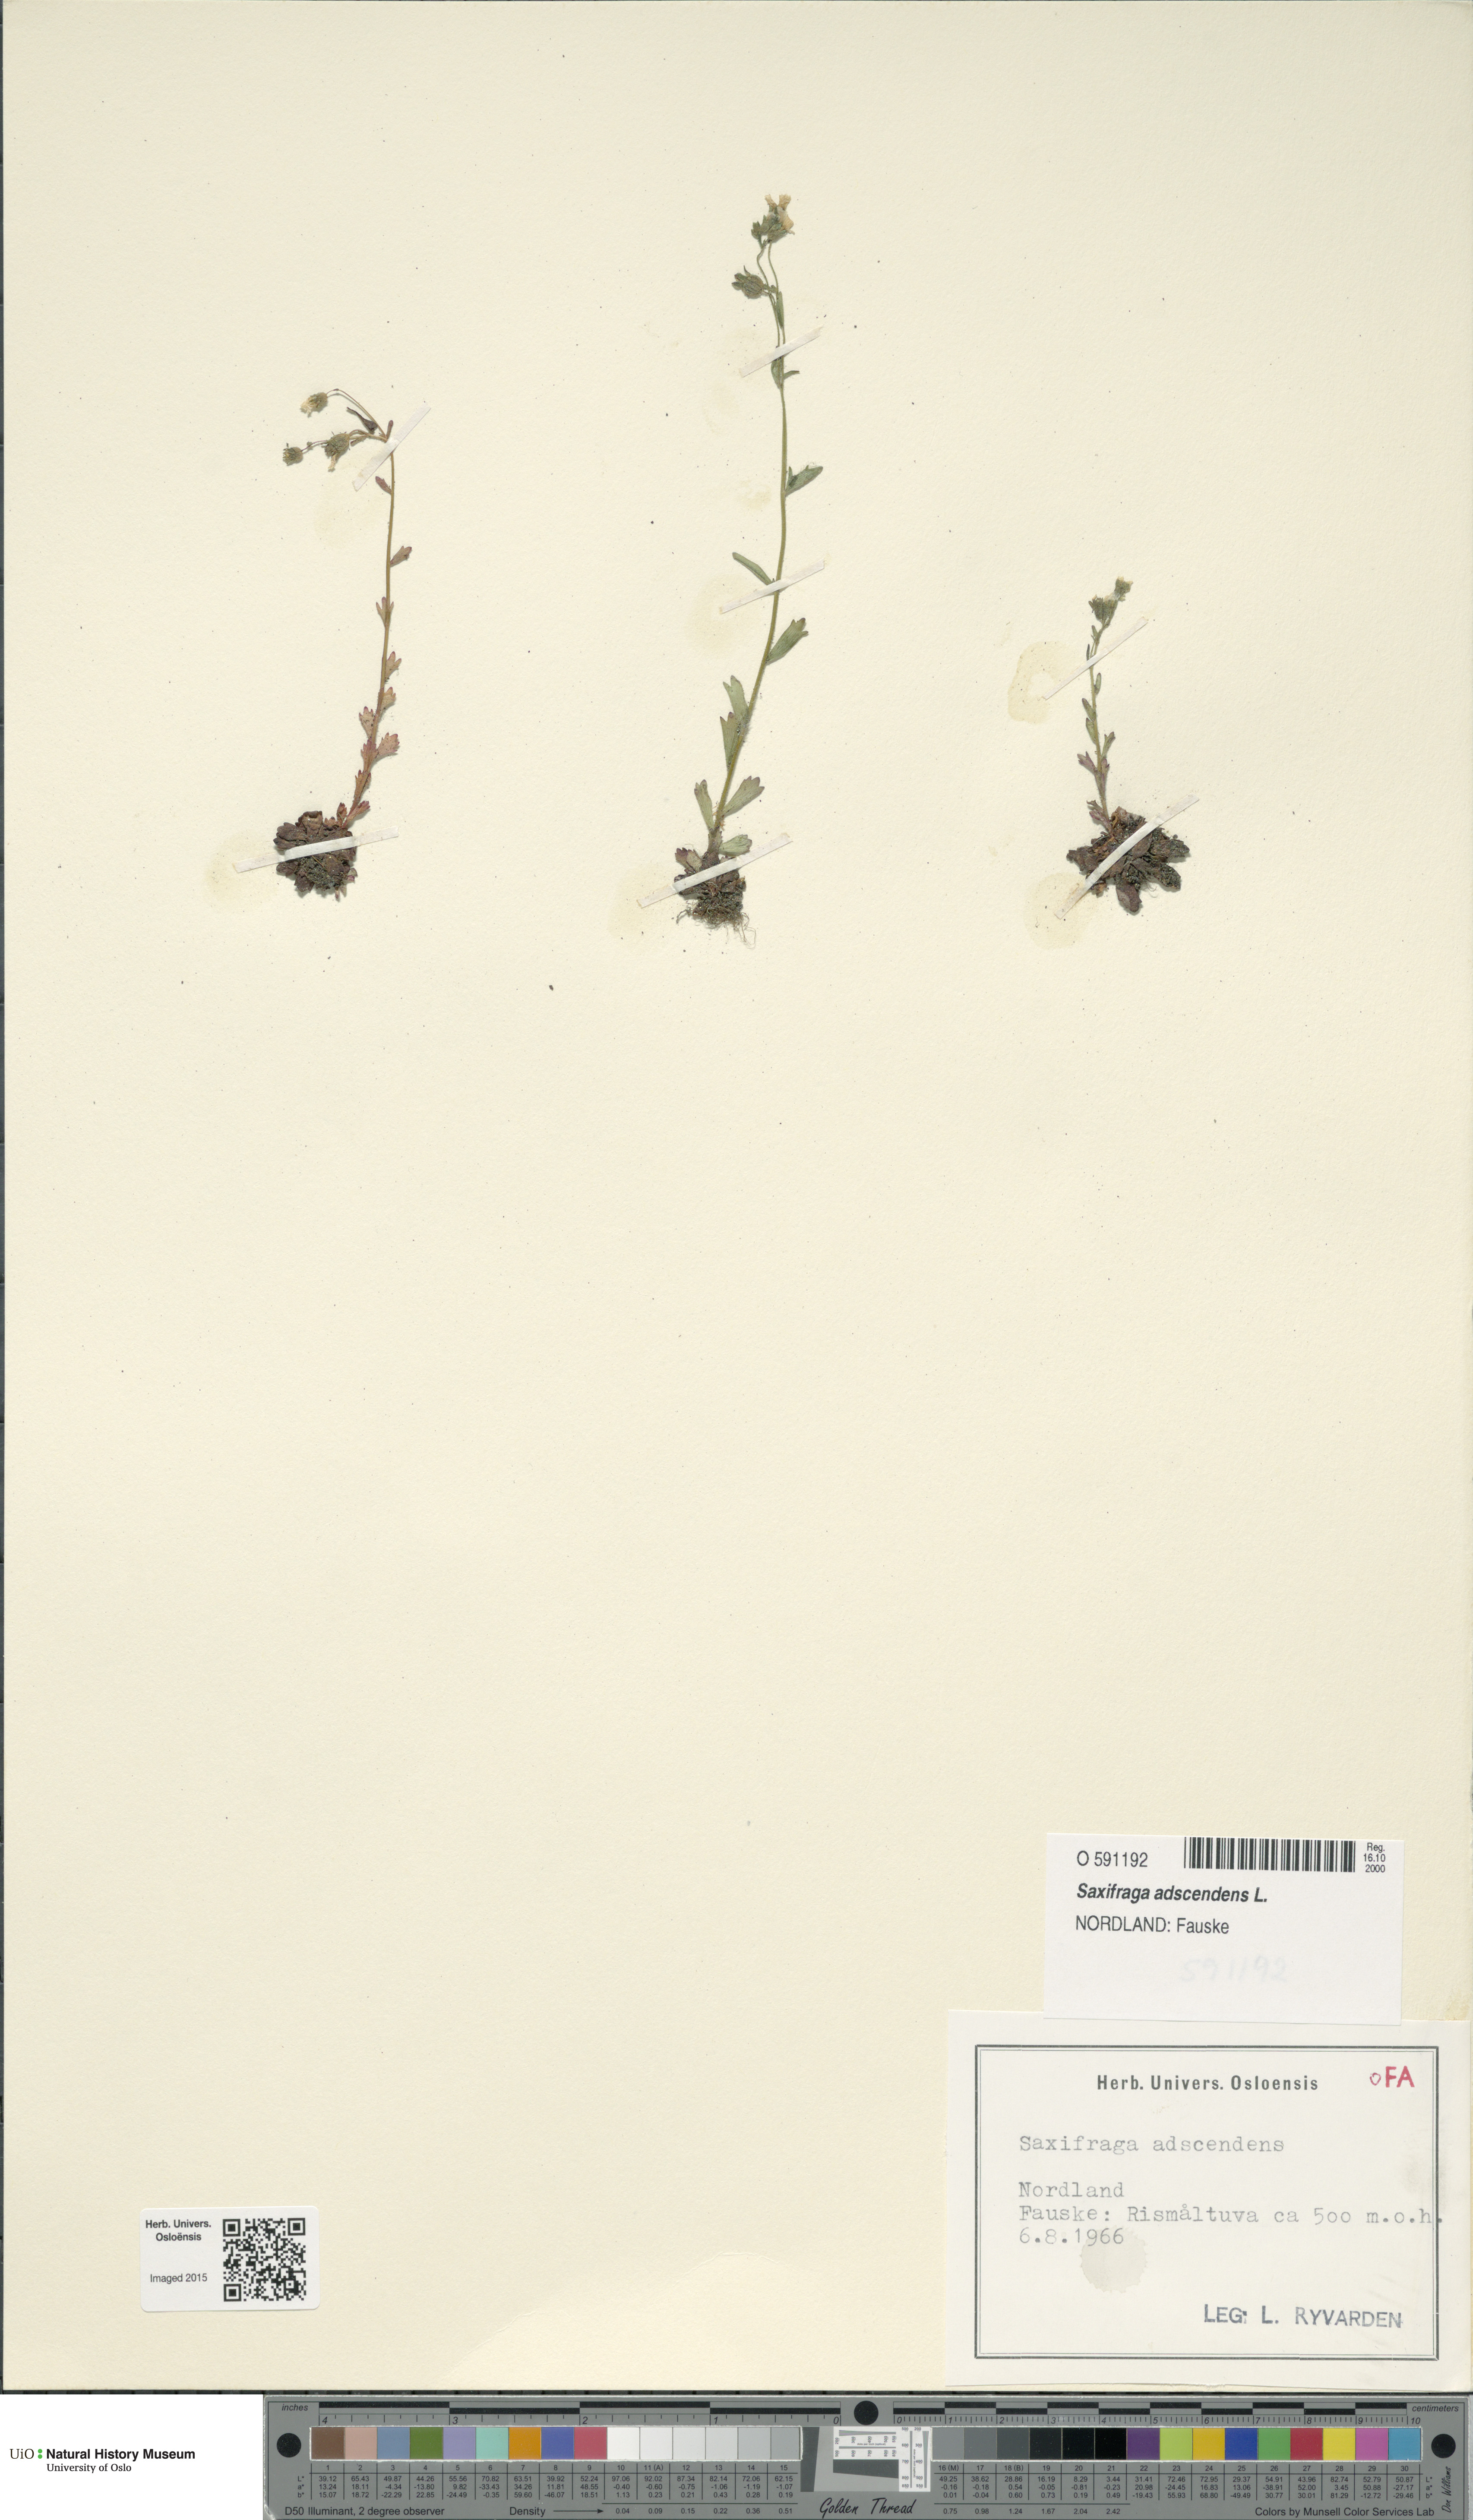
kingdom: Plantae
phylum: Tracheophyta
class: Magnoliopsida
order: Saxifragales
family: Saxifragaceae
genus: Saxifraga
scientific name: Saxifraga adscendens
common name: Ascending saxifrage
